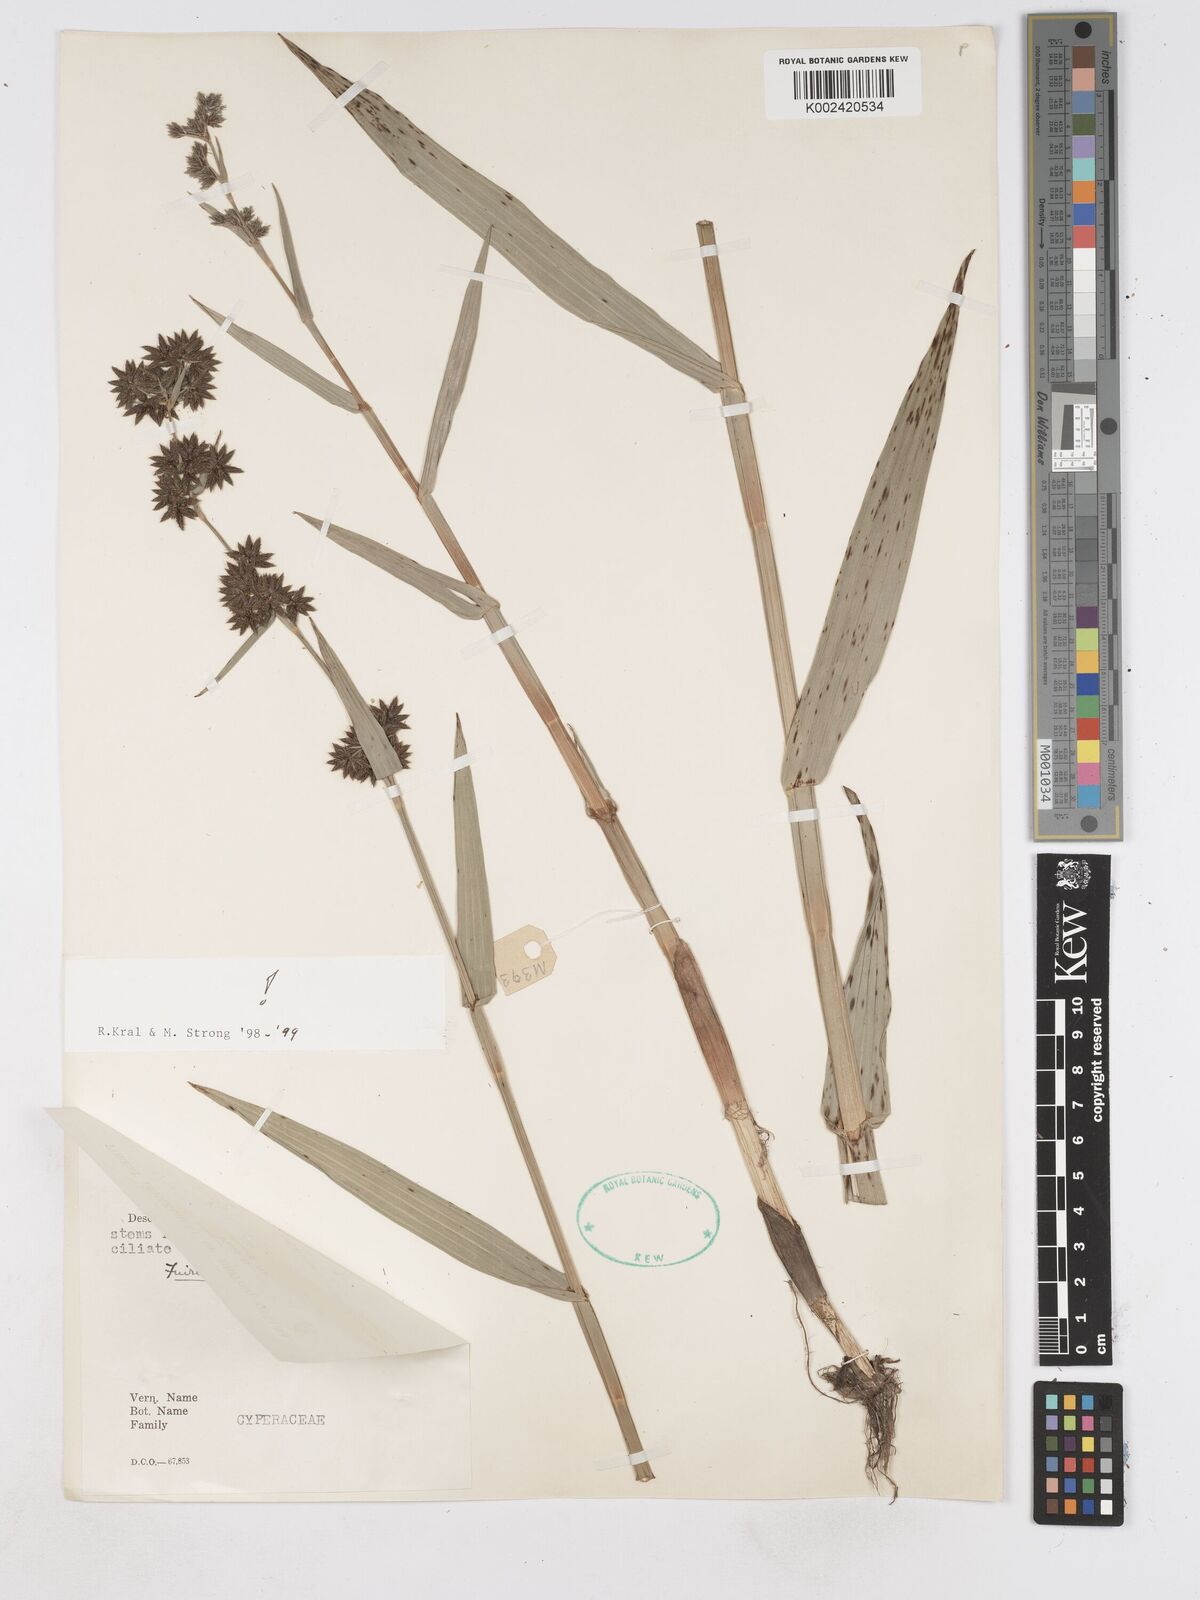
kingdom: Plantae
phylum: Tracheophyta
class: Liliopsida
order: Poales
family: Cyperaceae
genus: Fuirena
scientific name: Fuirena umbellata
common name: Yefen
